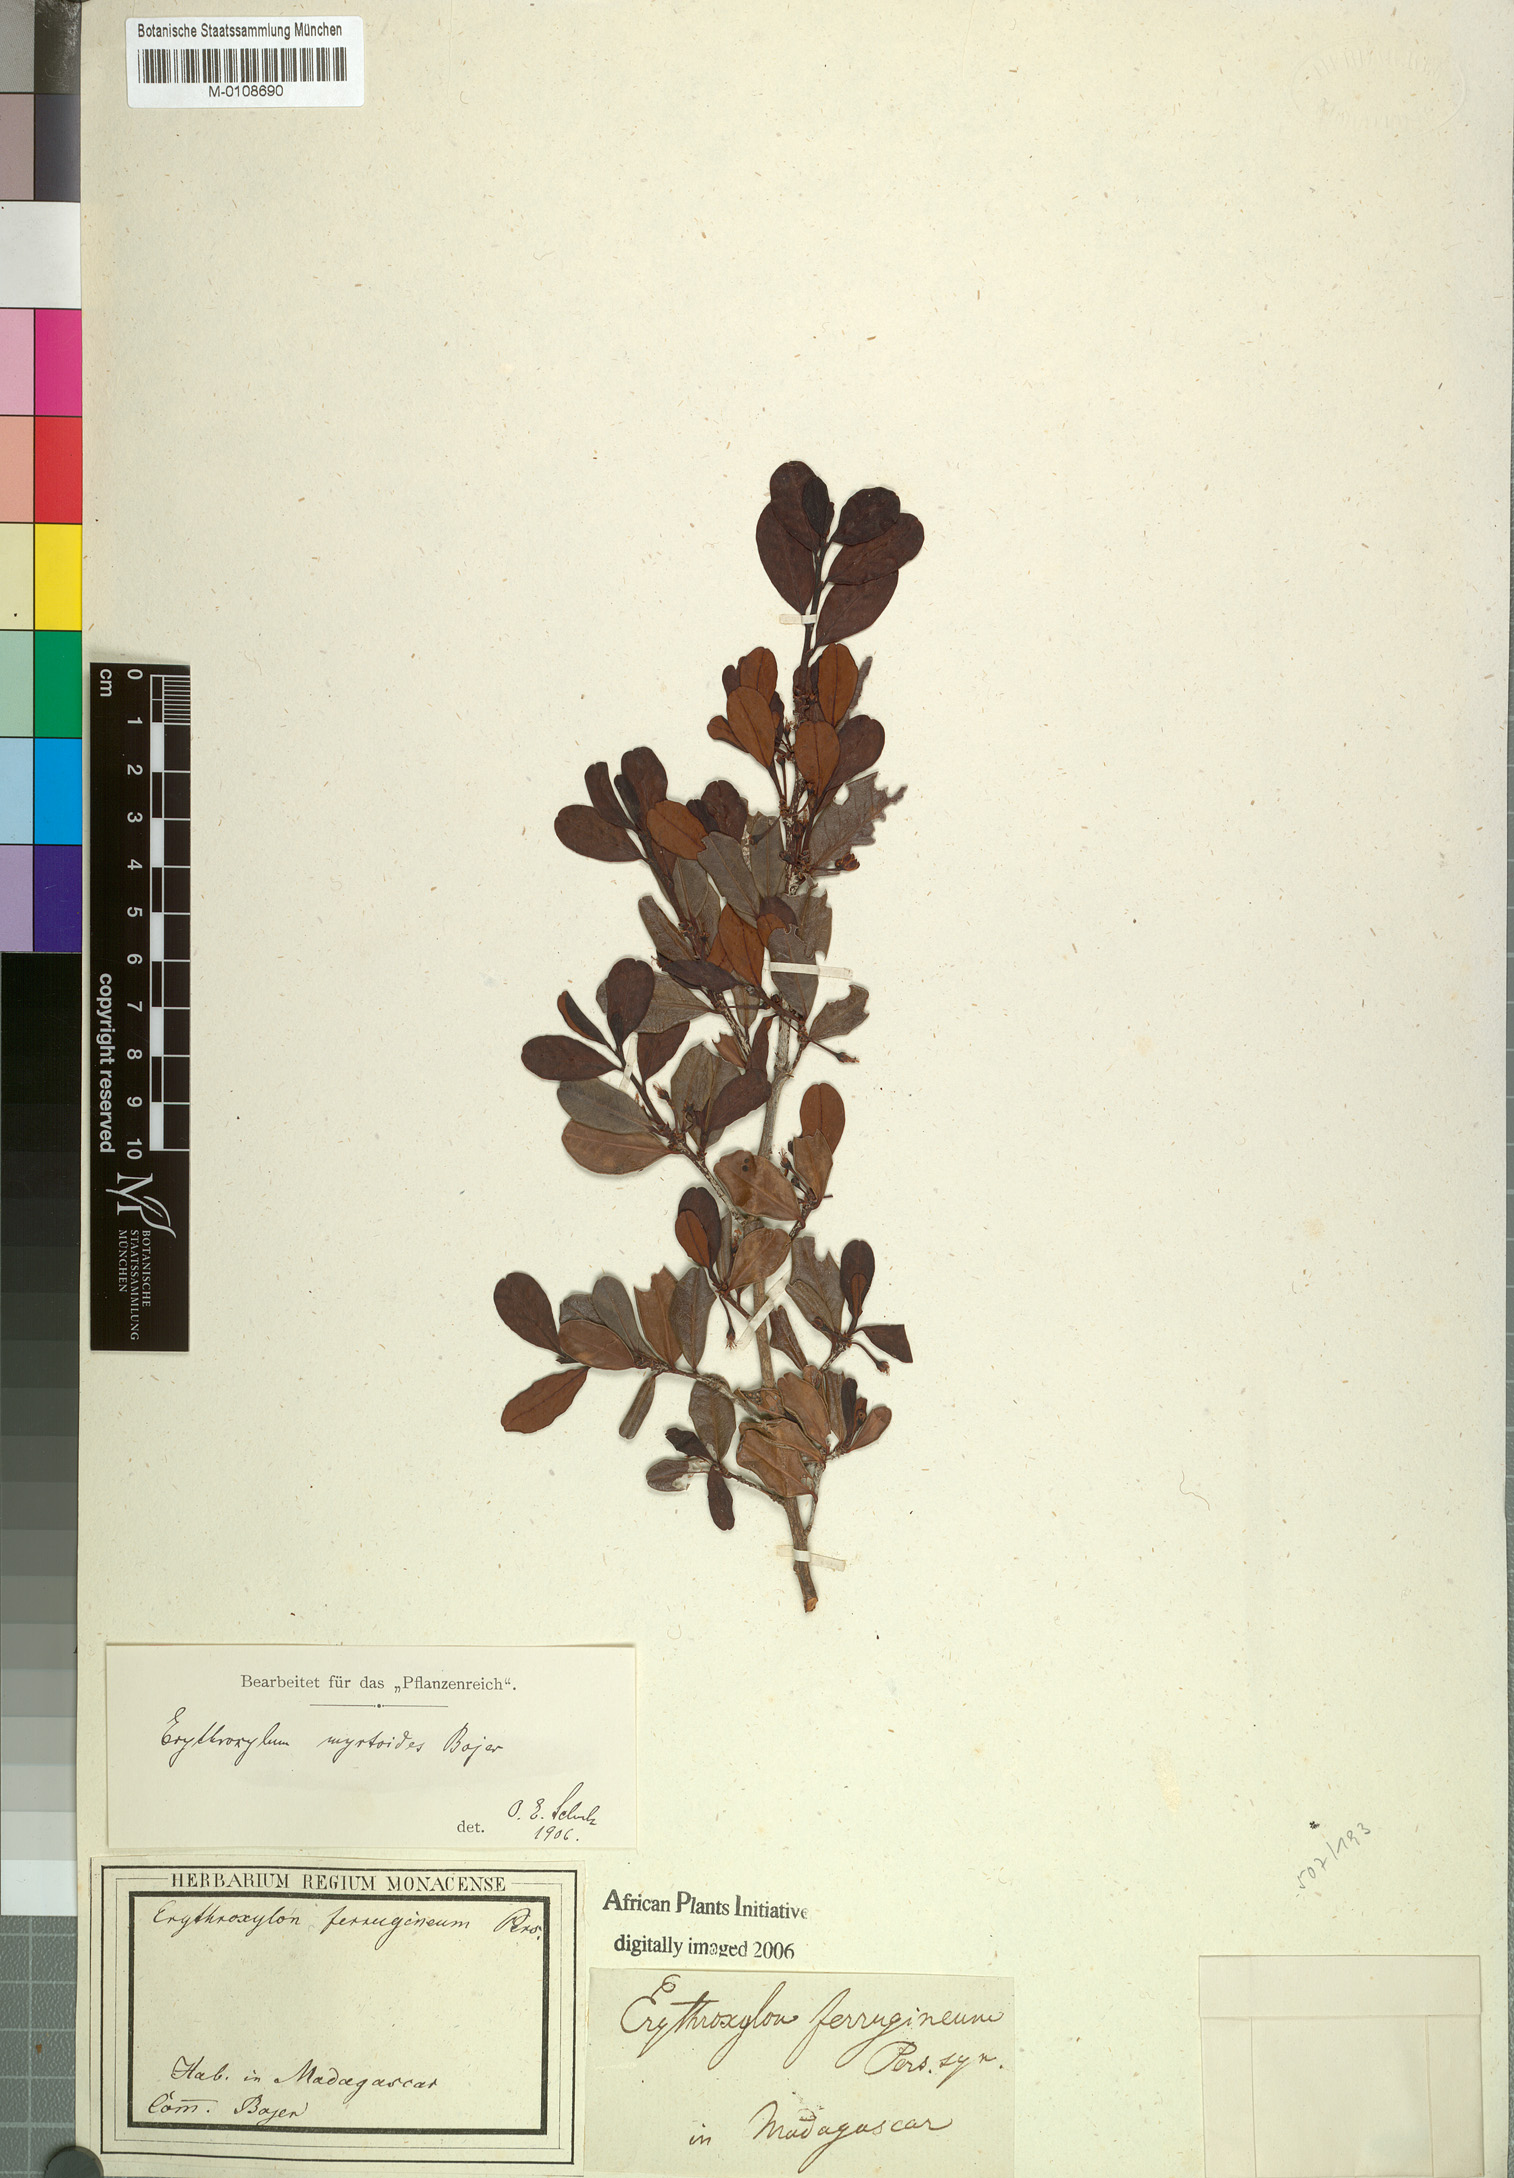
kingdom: Plantae
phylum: Tracheophyta
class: Magnoliopsida
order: Malpighiales
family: Erythroxylaceae
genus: Erythroxylum
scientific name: Erythroxylum ferrugineum
